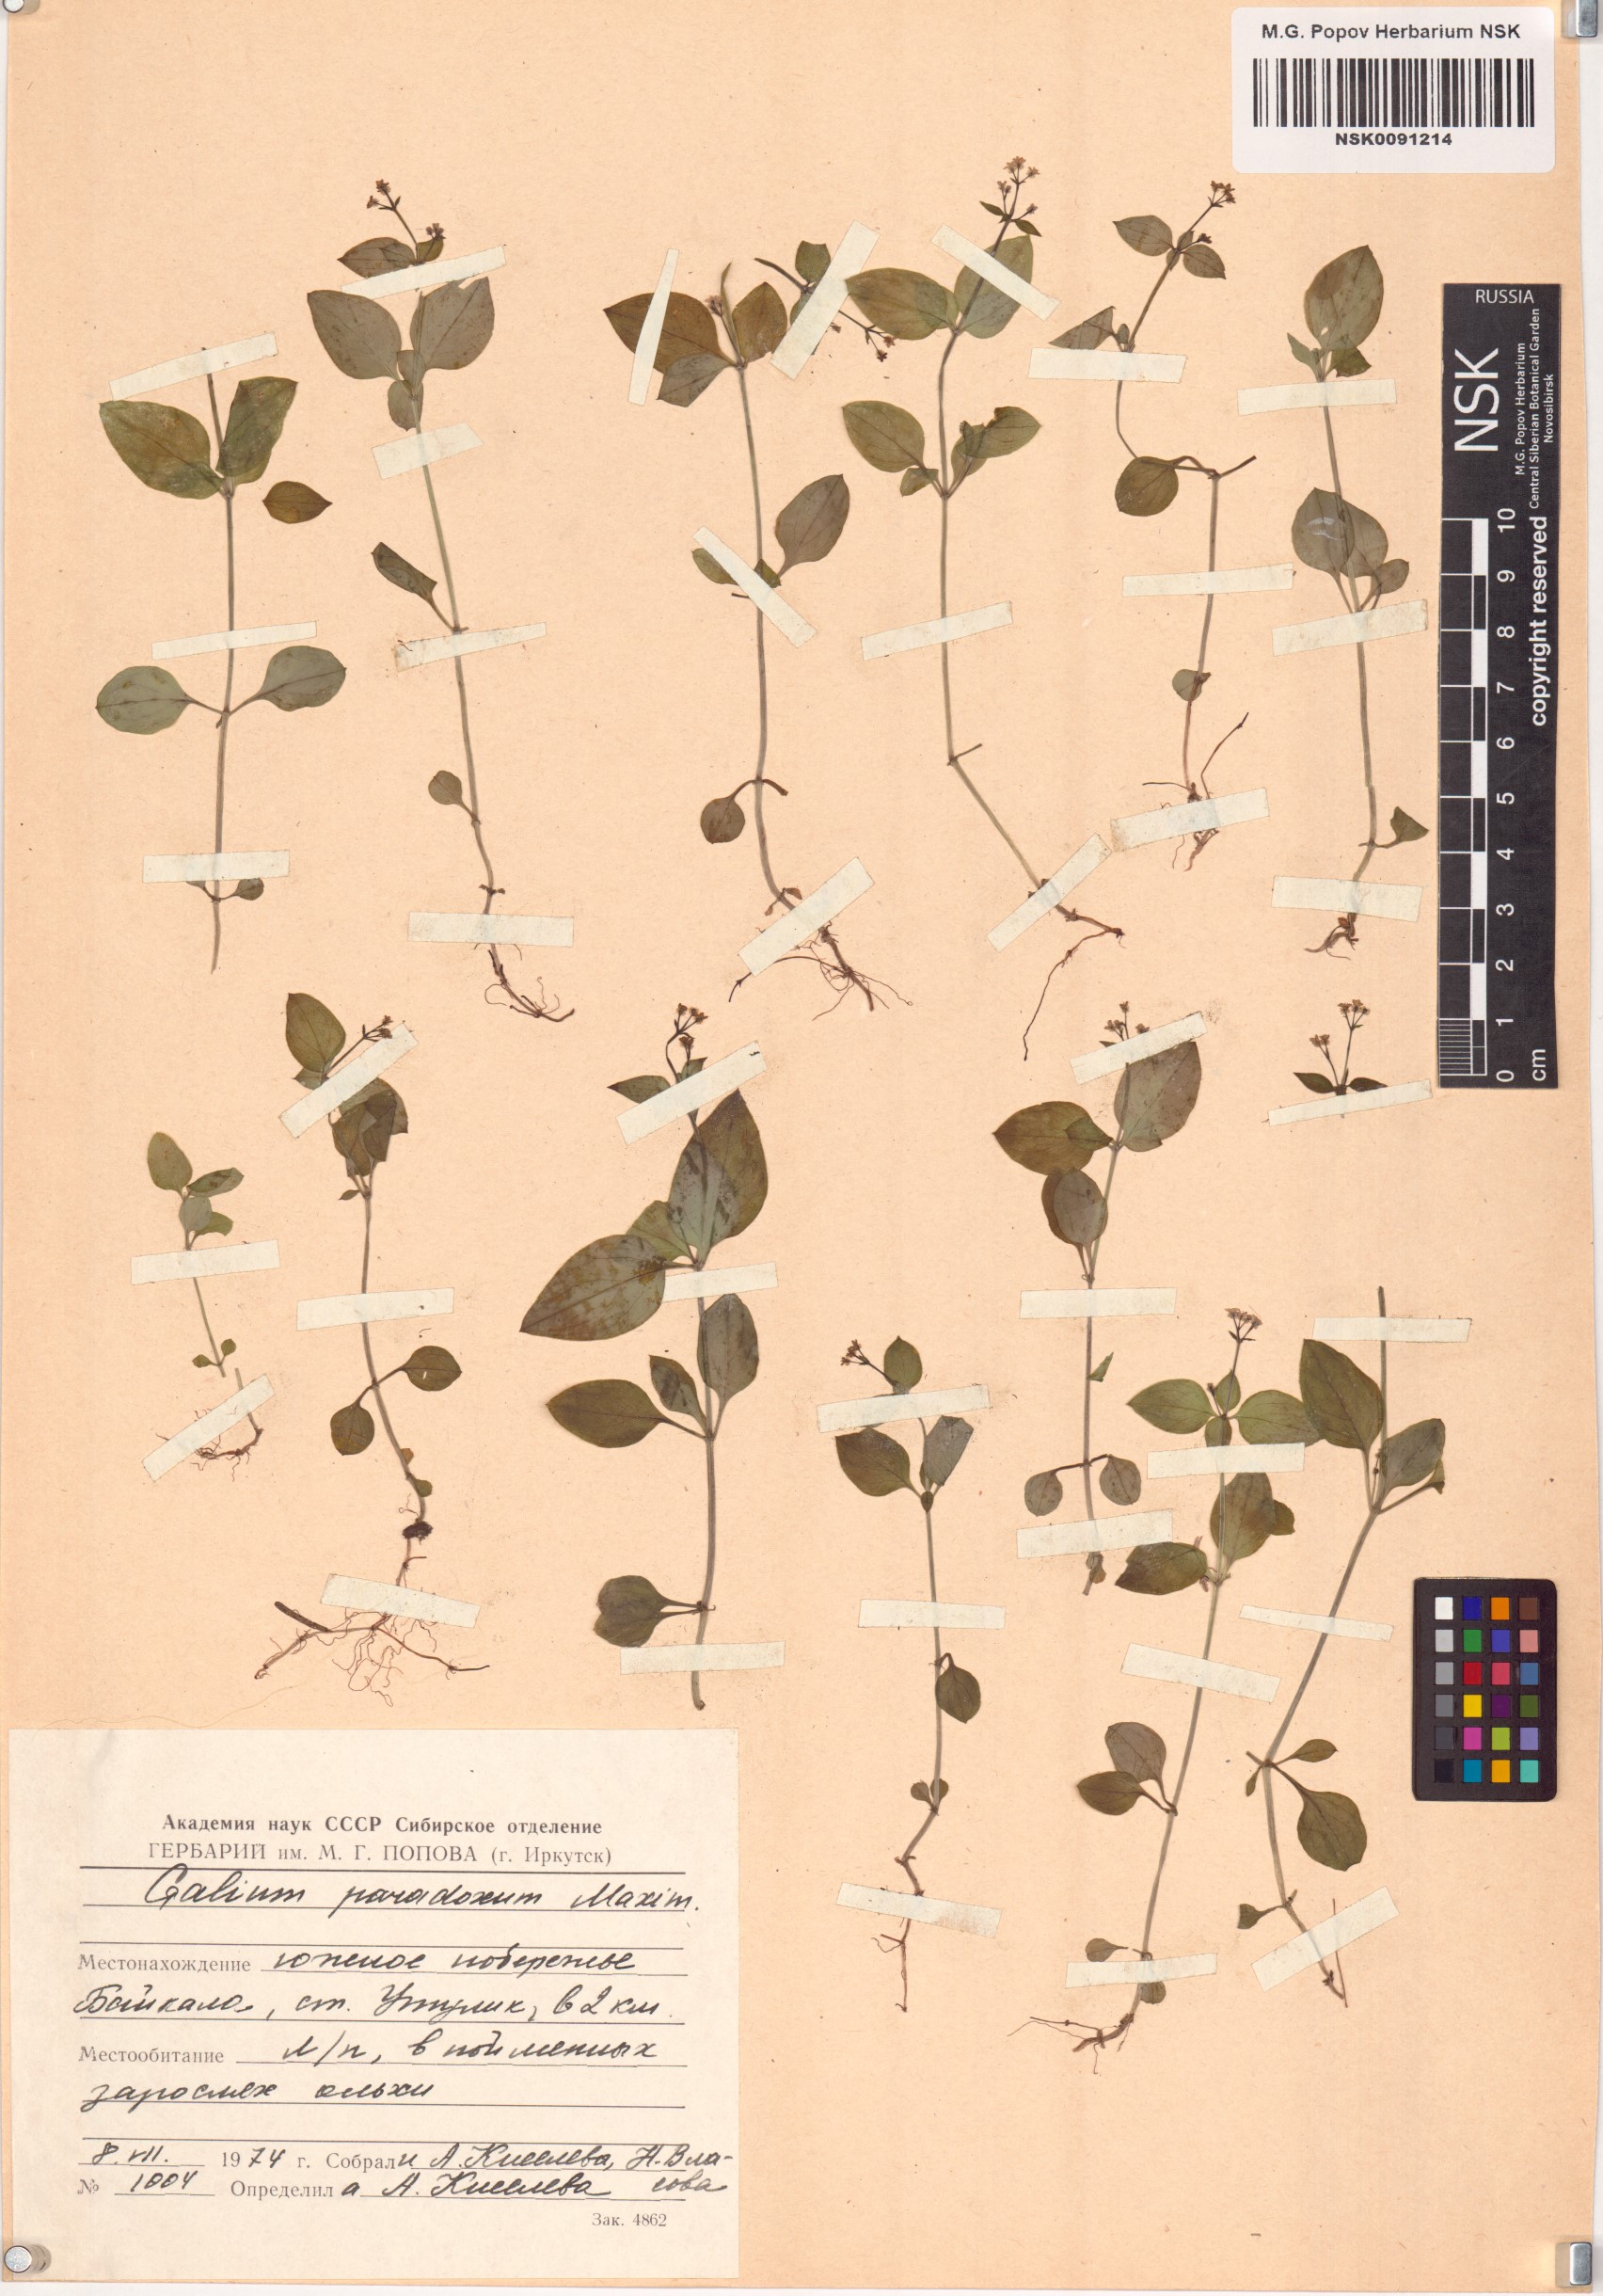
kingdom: Plantae
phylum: Tracheophyta
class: Magnoliopsida
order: Gentianales
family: Rubiaceae
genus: Pseudogalium
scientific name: Pseudogalium paradoxum
